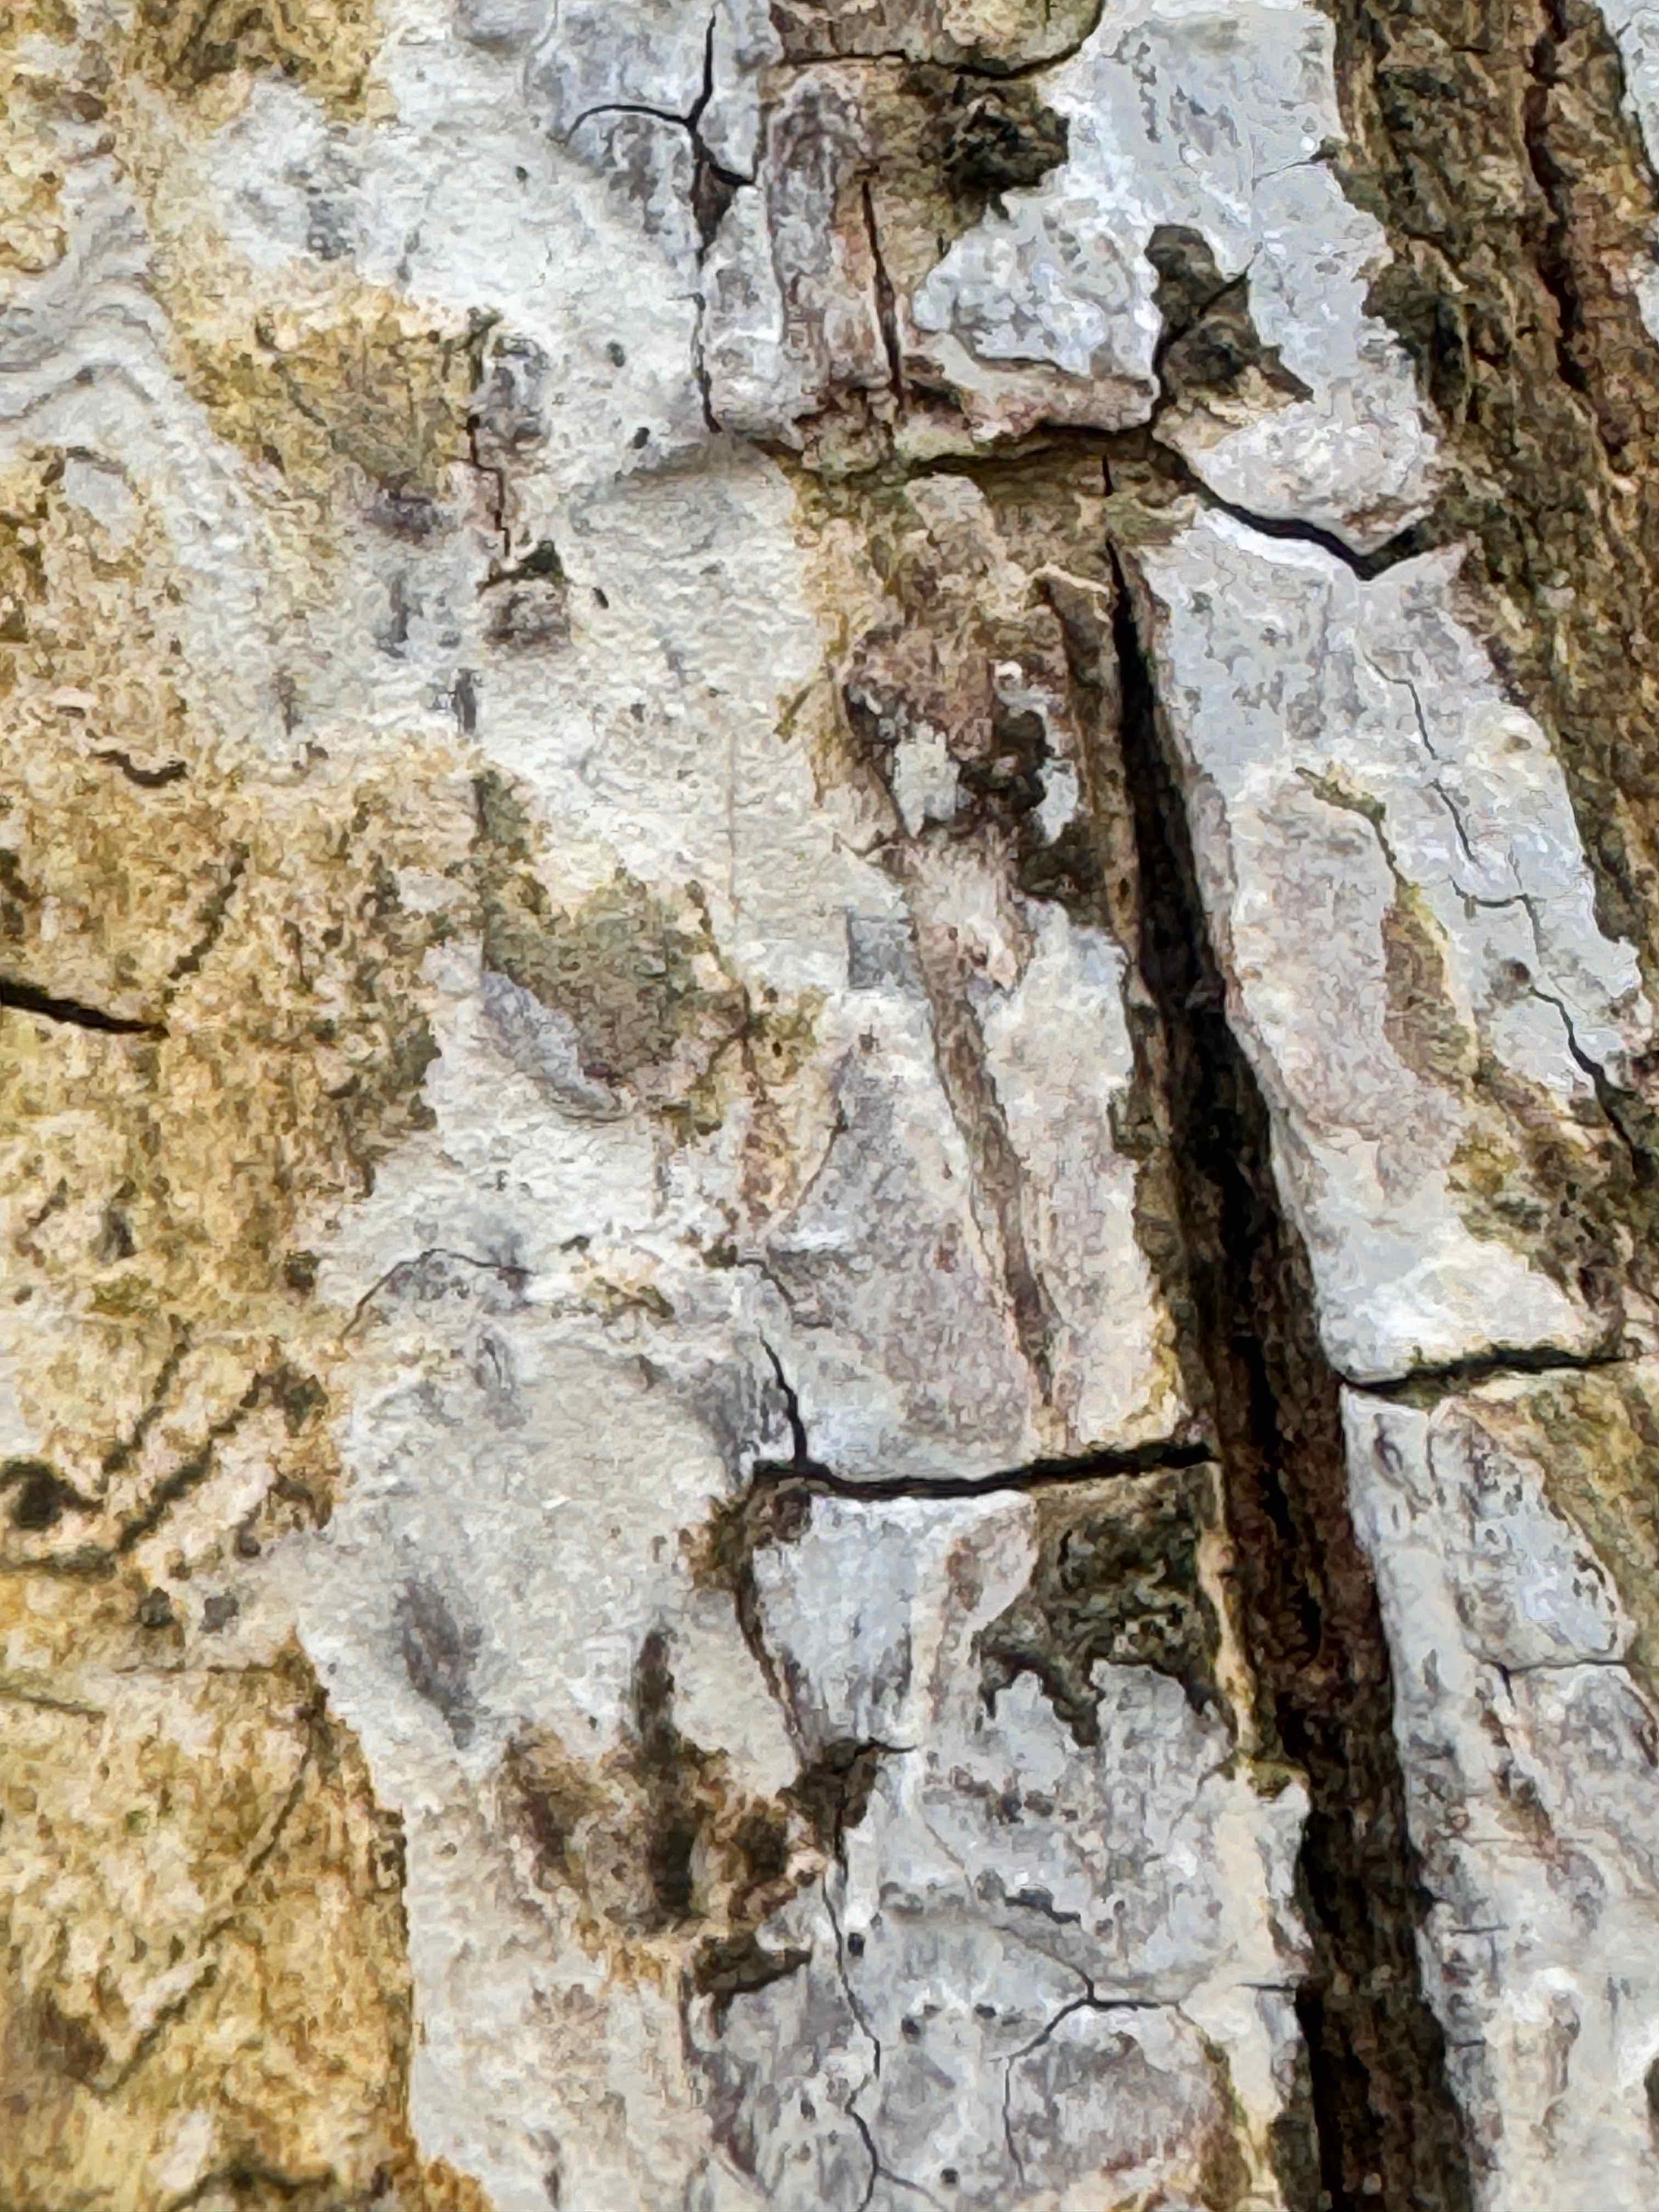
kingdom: Fungi
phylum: Basidiomycota
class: Agaricomycetes
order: Agaricales
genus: Dendrothele
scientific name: Dendrothele acerina
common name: navr-kalkplet
